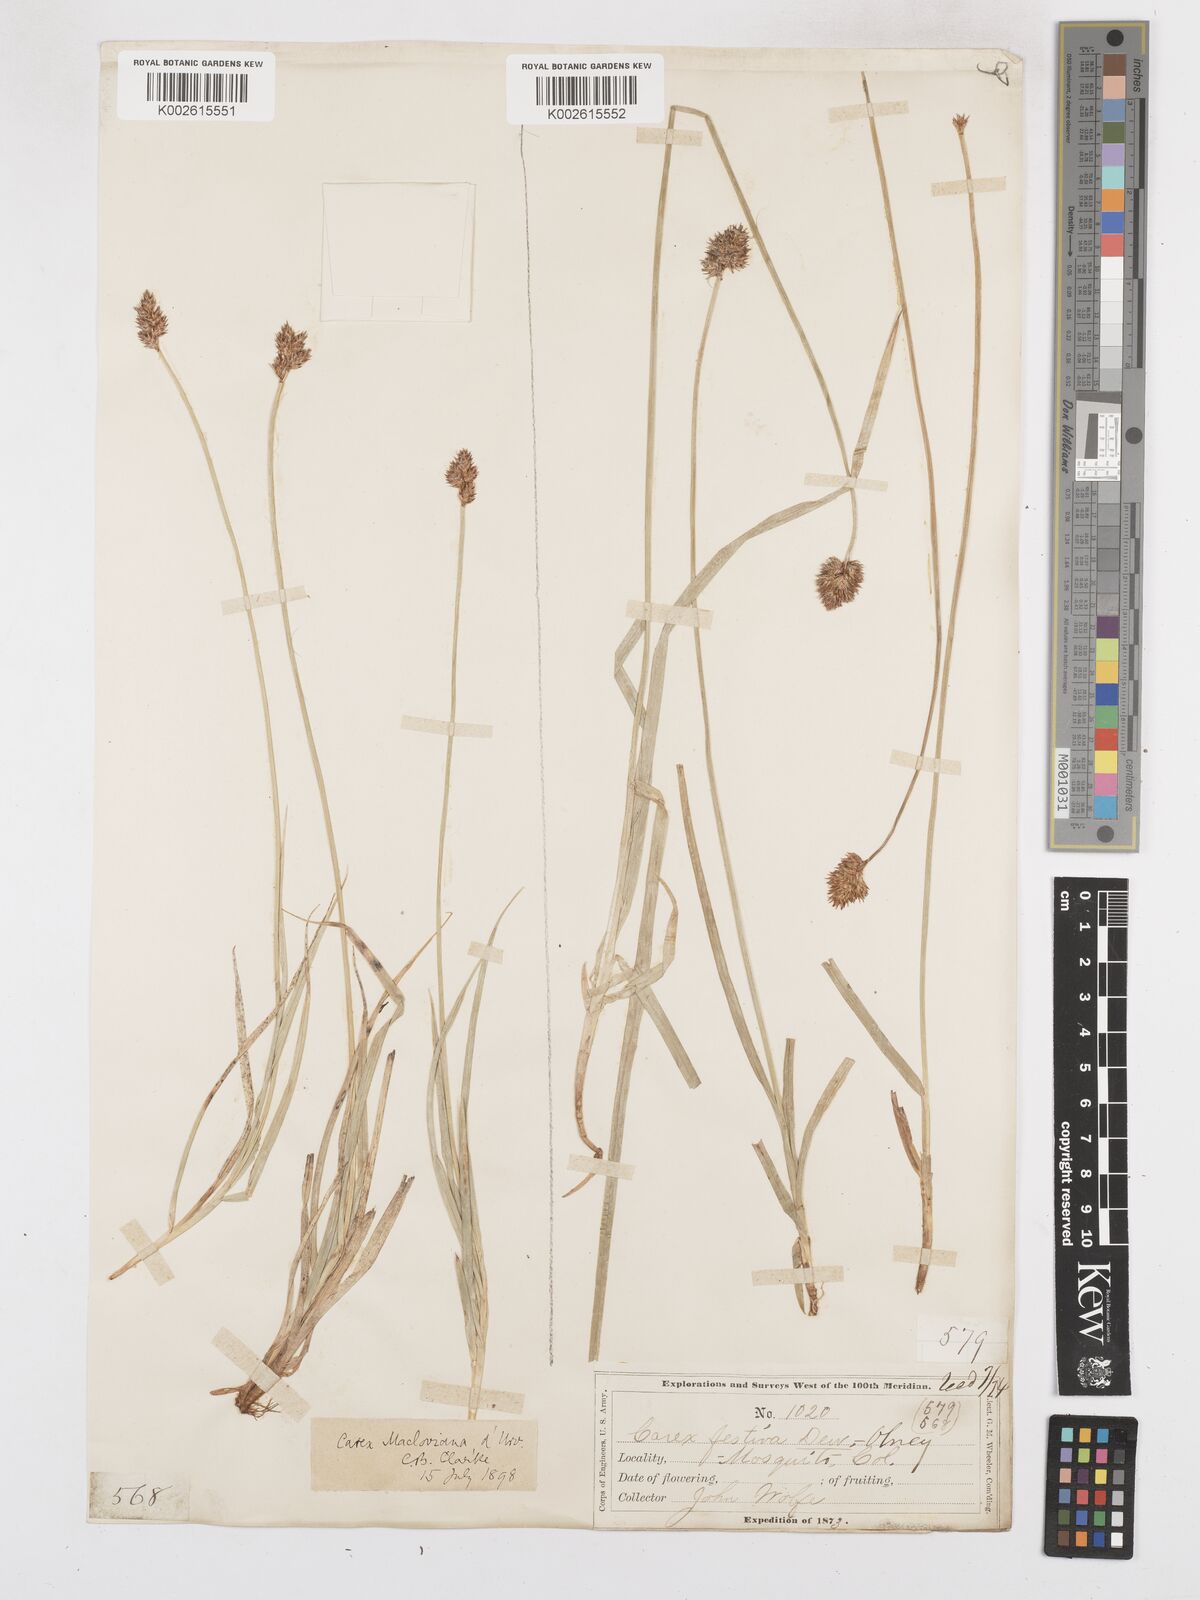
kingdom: Plantae
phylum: Tracheophyta
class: Liliopsida
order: Poales
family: Cyperaceae
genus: Carex
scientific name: Carex macloviana
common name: Falkland island sedge
